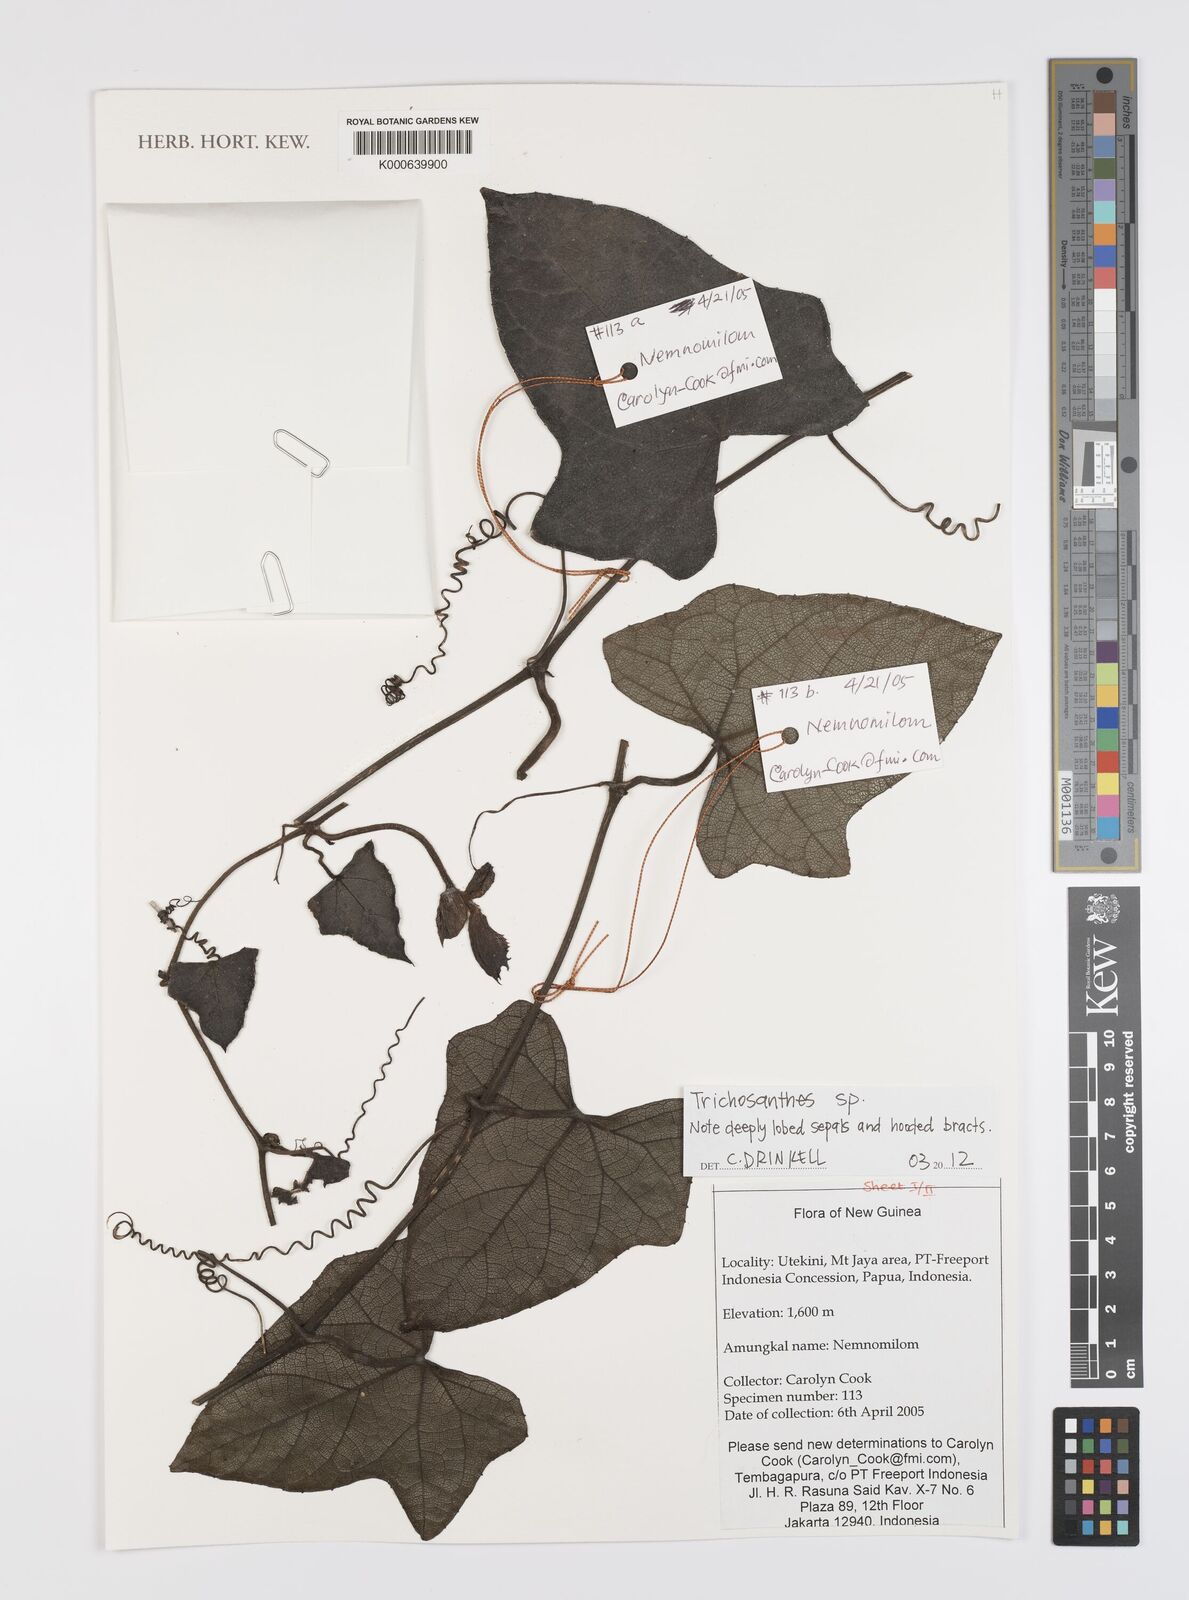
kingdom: Plantae
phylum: Tracheophyta
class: Magnoliopsida
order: Cucurbitales
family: Cucurbitaceae
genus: Trichosanthes
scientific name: Trichosanthes
